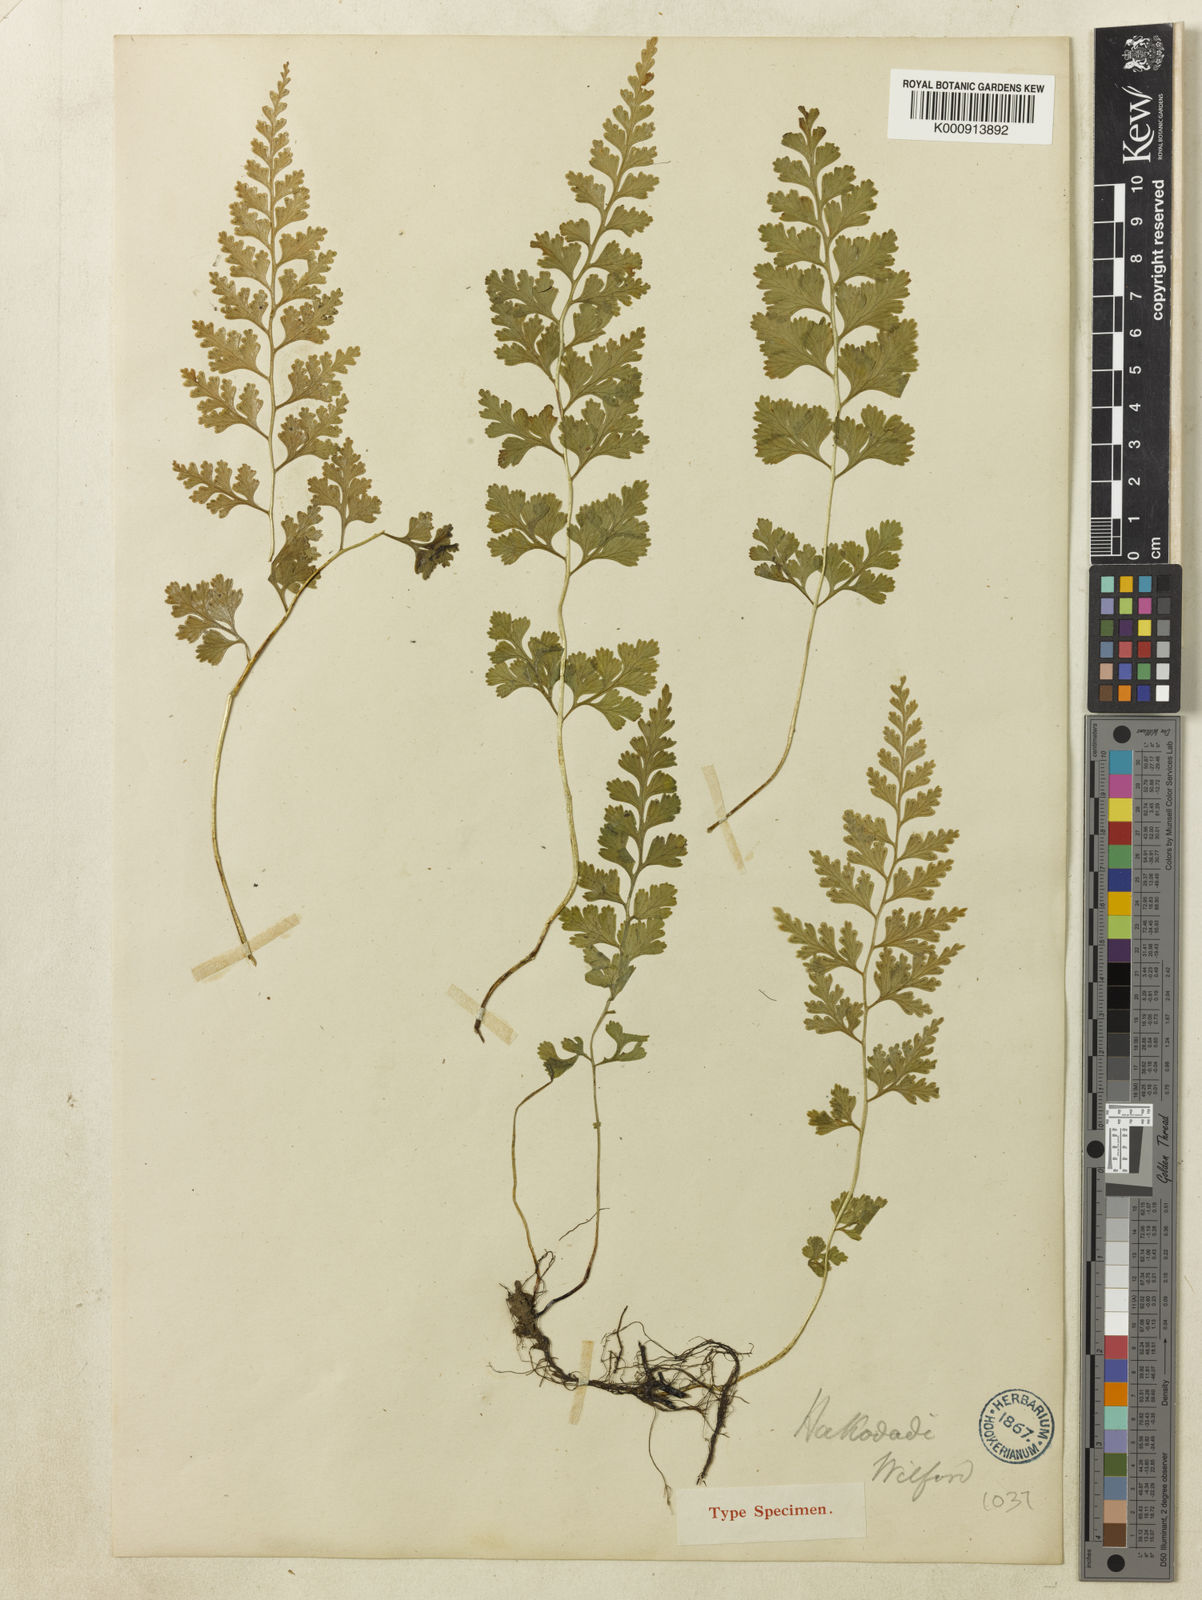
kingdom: Plantae
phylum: Tracheophyta
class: Polypodiopsida
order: Polypodiales
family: Dennstaedtiaceae
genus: Sitobolium
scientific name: Sitobolium wilfordii
